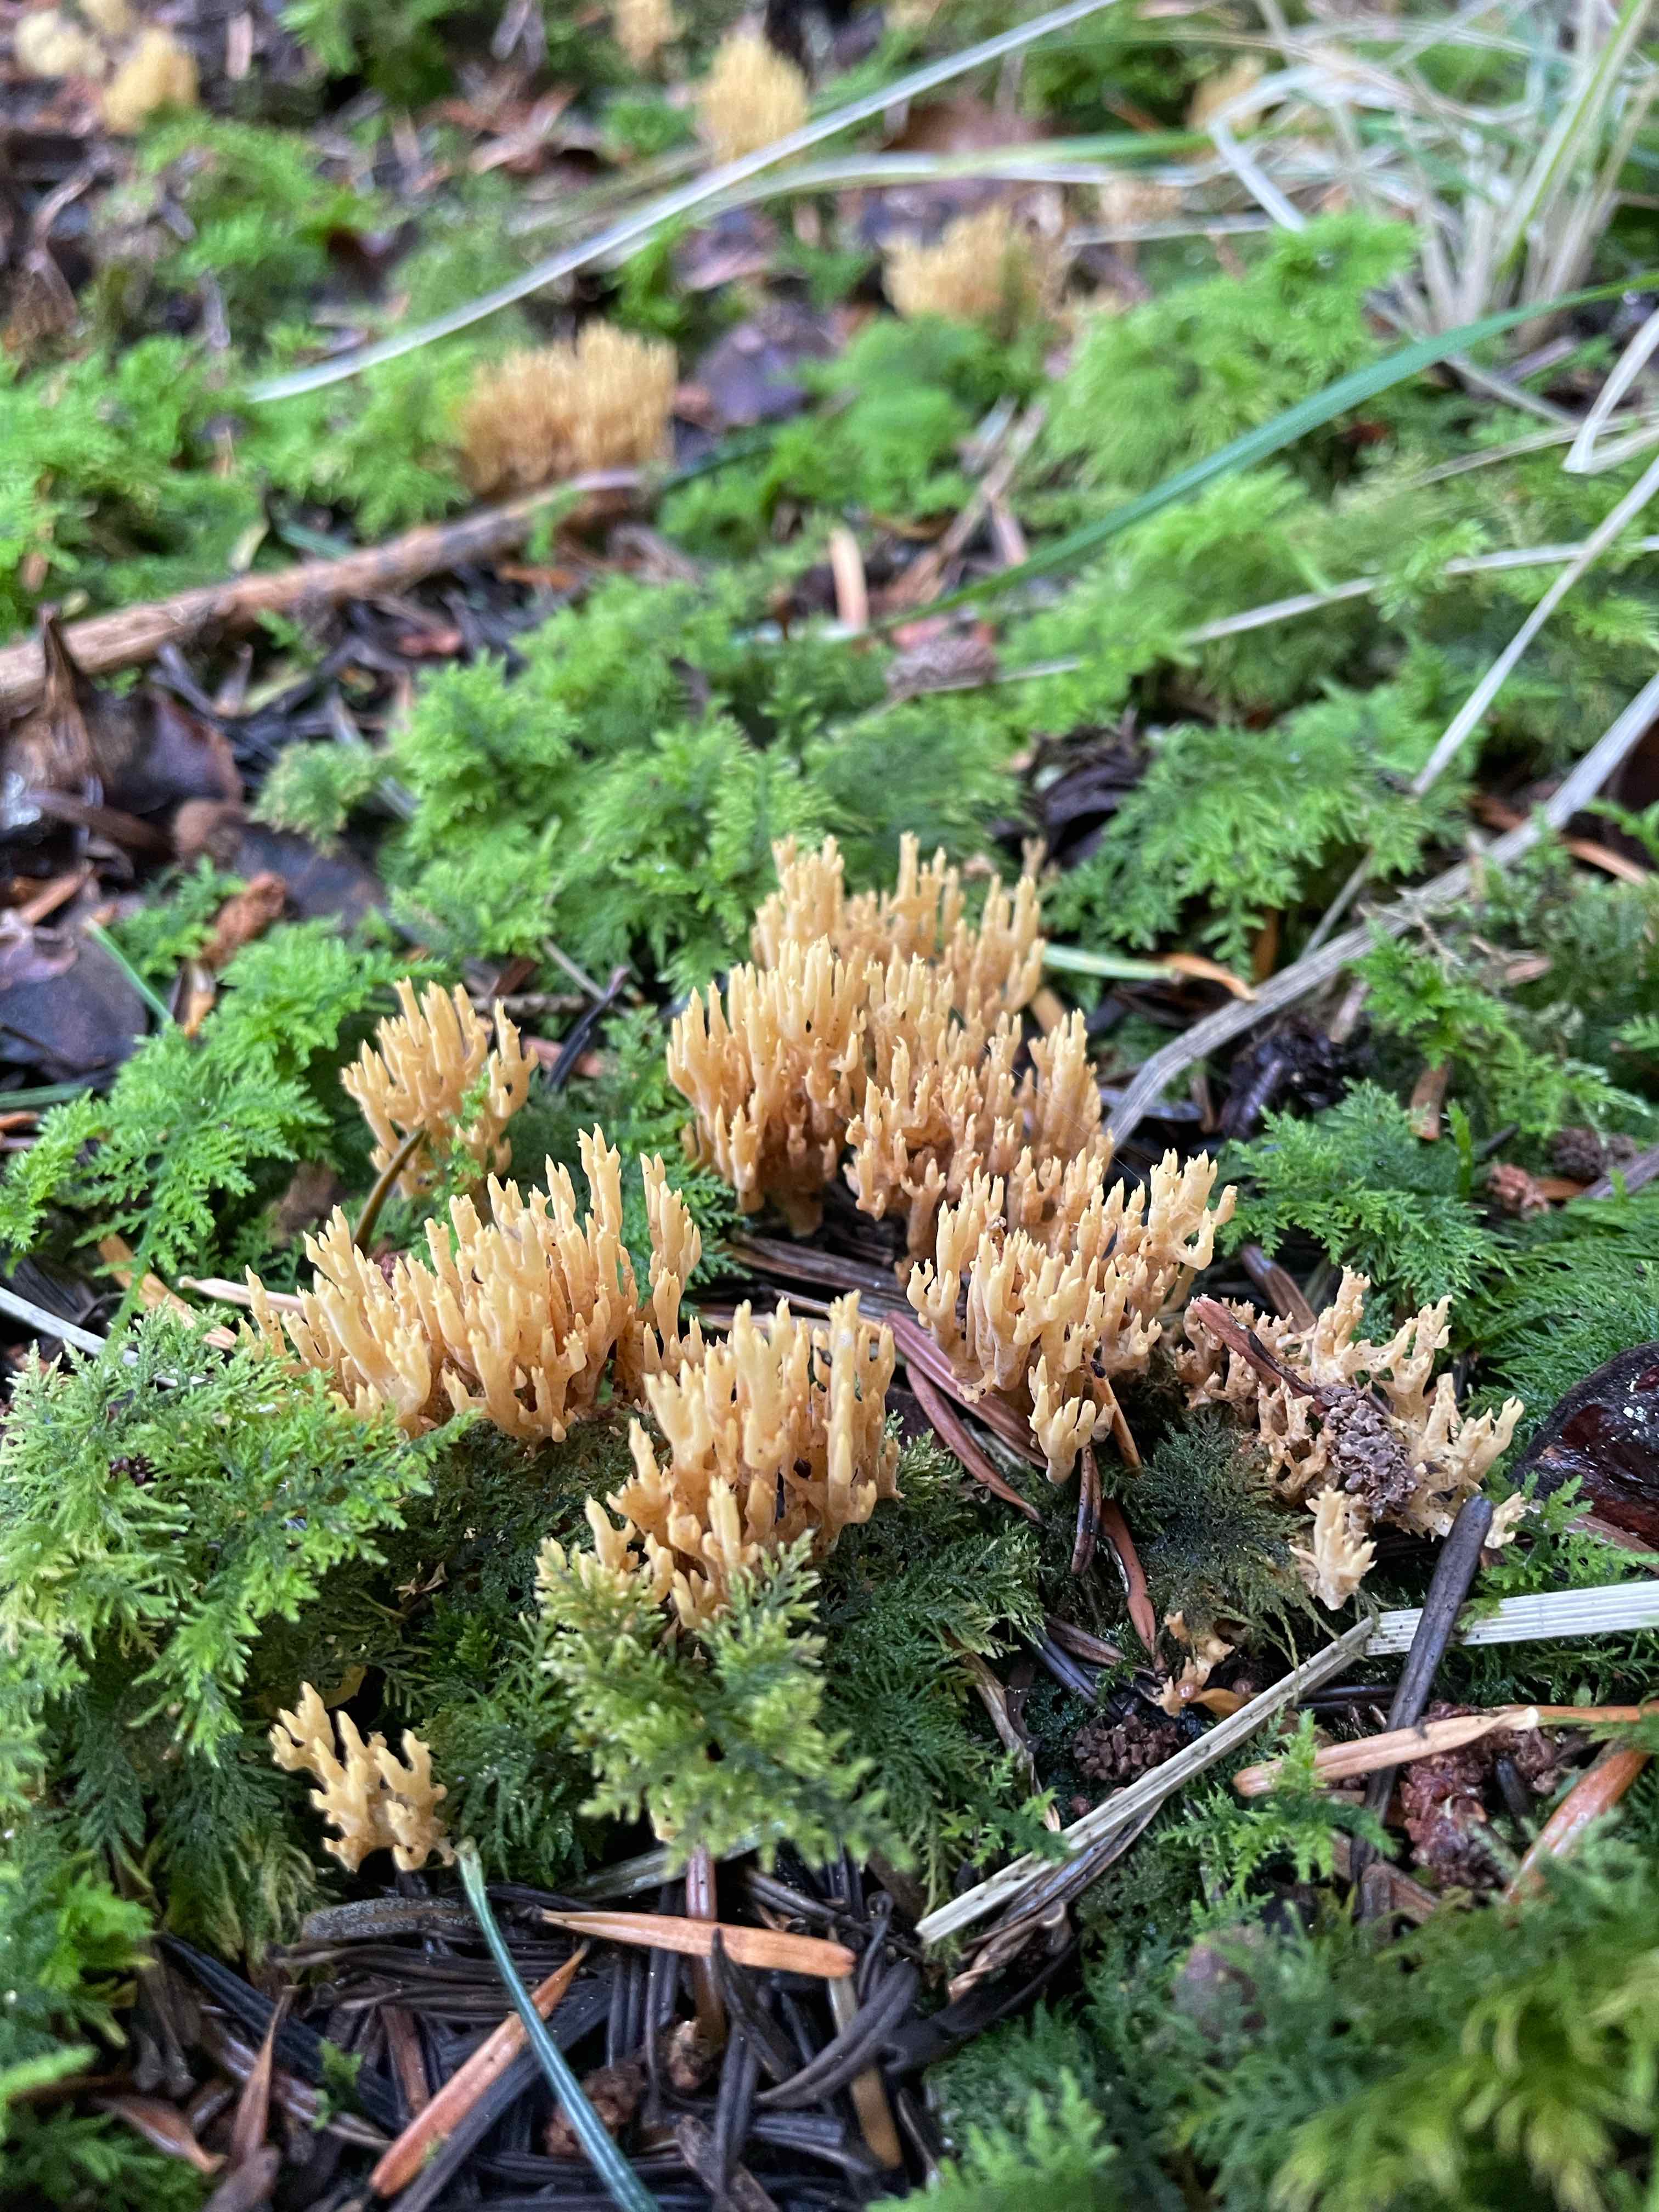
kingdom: Fungi
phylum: Basidiomycota
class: Agaricomycetes
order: Gomphales
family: Gomphaceae
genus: Phaeoclavulina
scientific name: Phaeoclavulina eumorpha
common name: gran-koralsvamp
